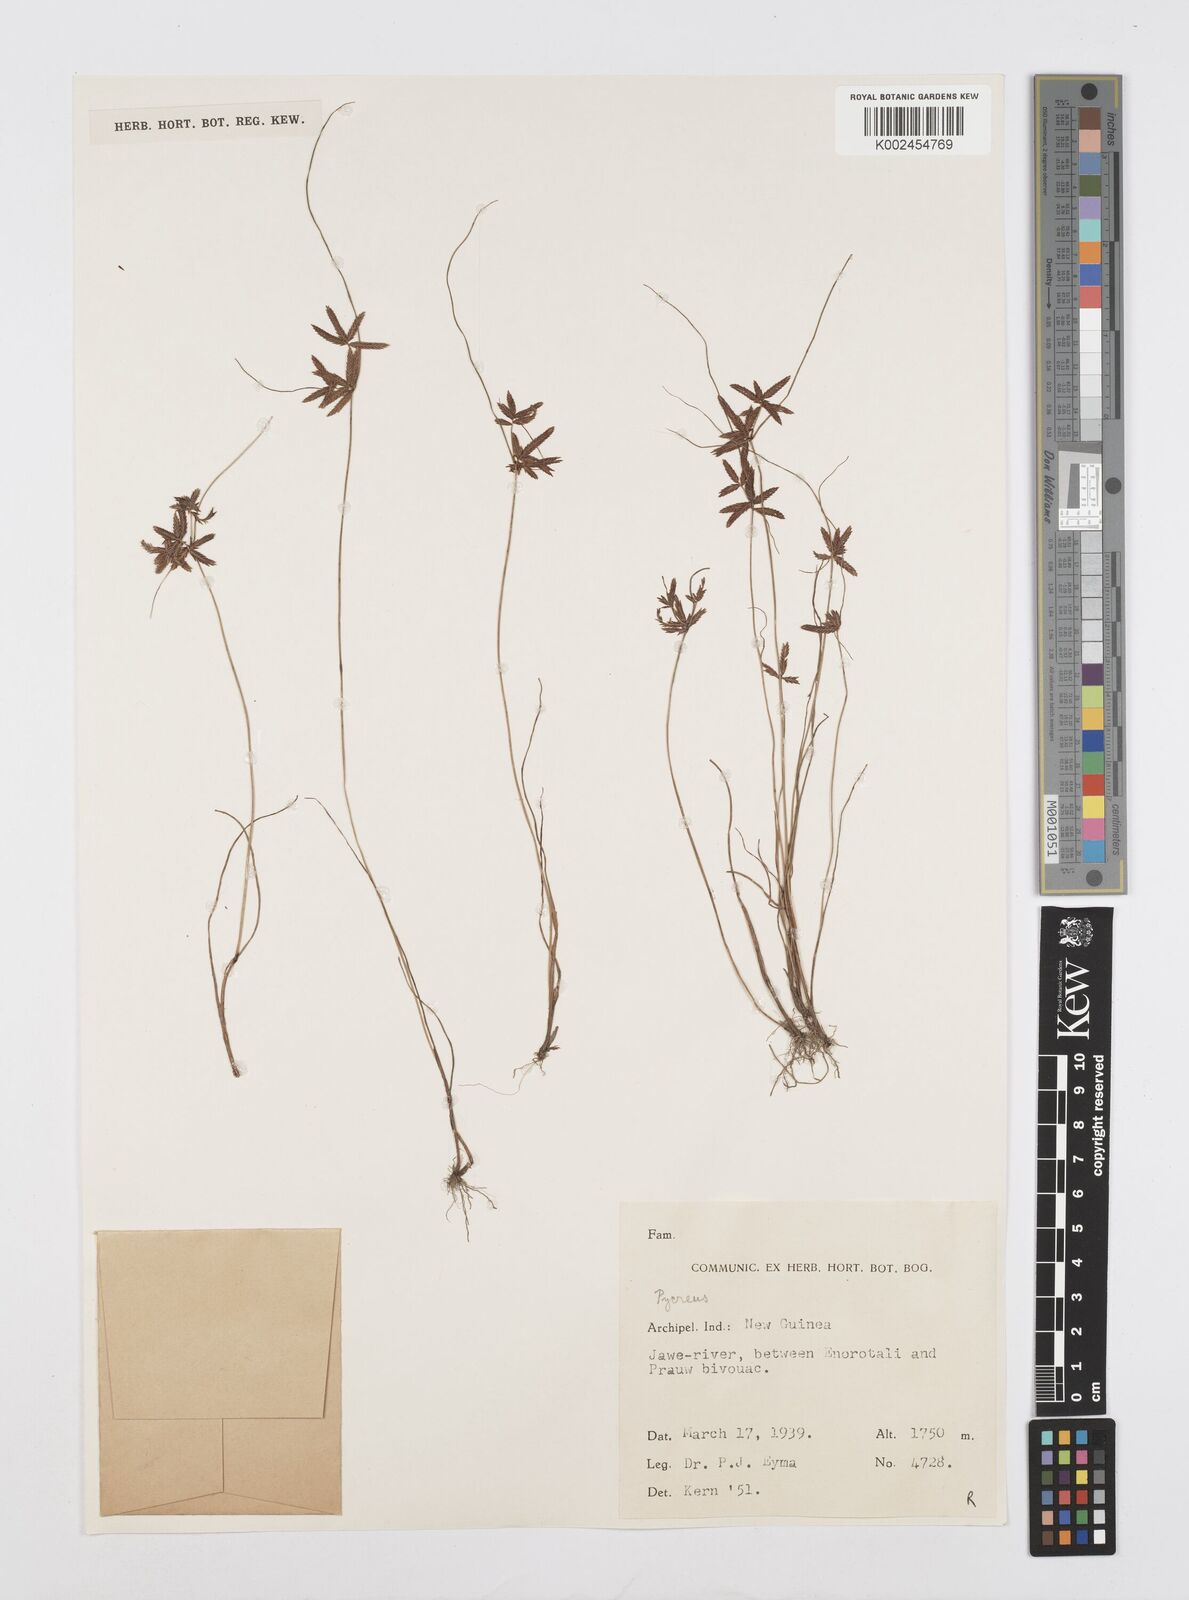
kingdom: Plantae
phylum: Tracheophyta
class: Liliopsida
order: Poales
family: Cyperaceae
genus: Cyperus
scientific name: Cyperus flavidus
